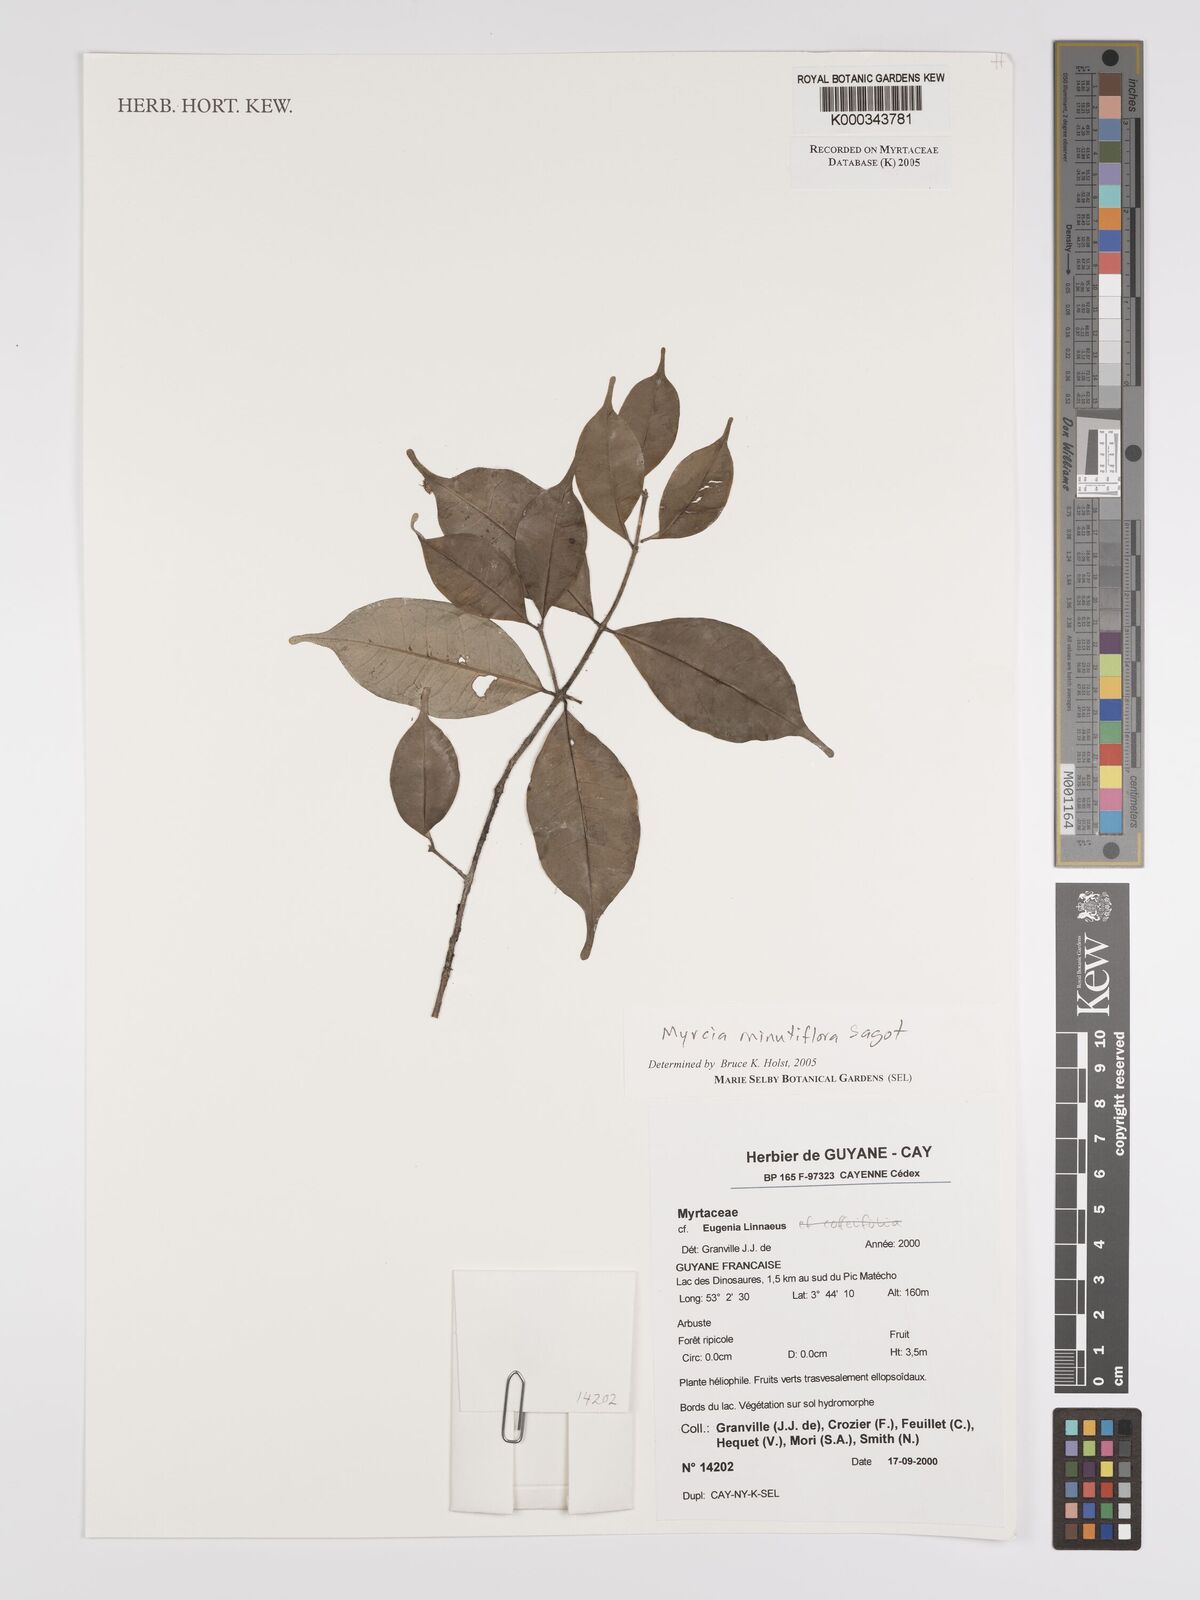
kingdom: Plantae
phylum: Tracheophyta
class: Magnoliopsida
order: Myrtales
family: Myrtaceae
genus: Myrcia
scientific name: Myrcia minutiflora
